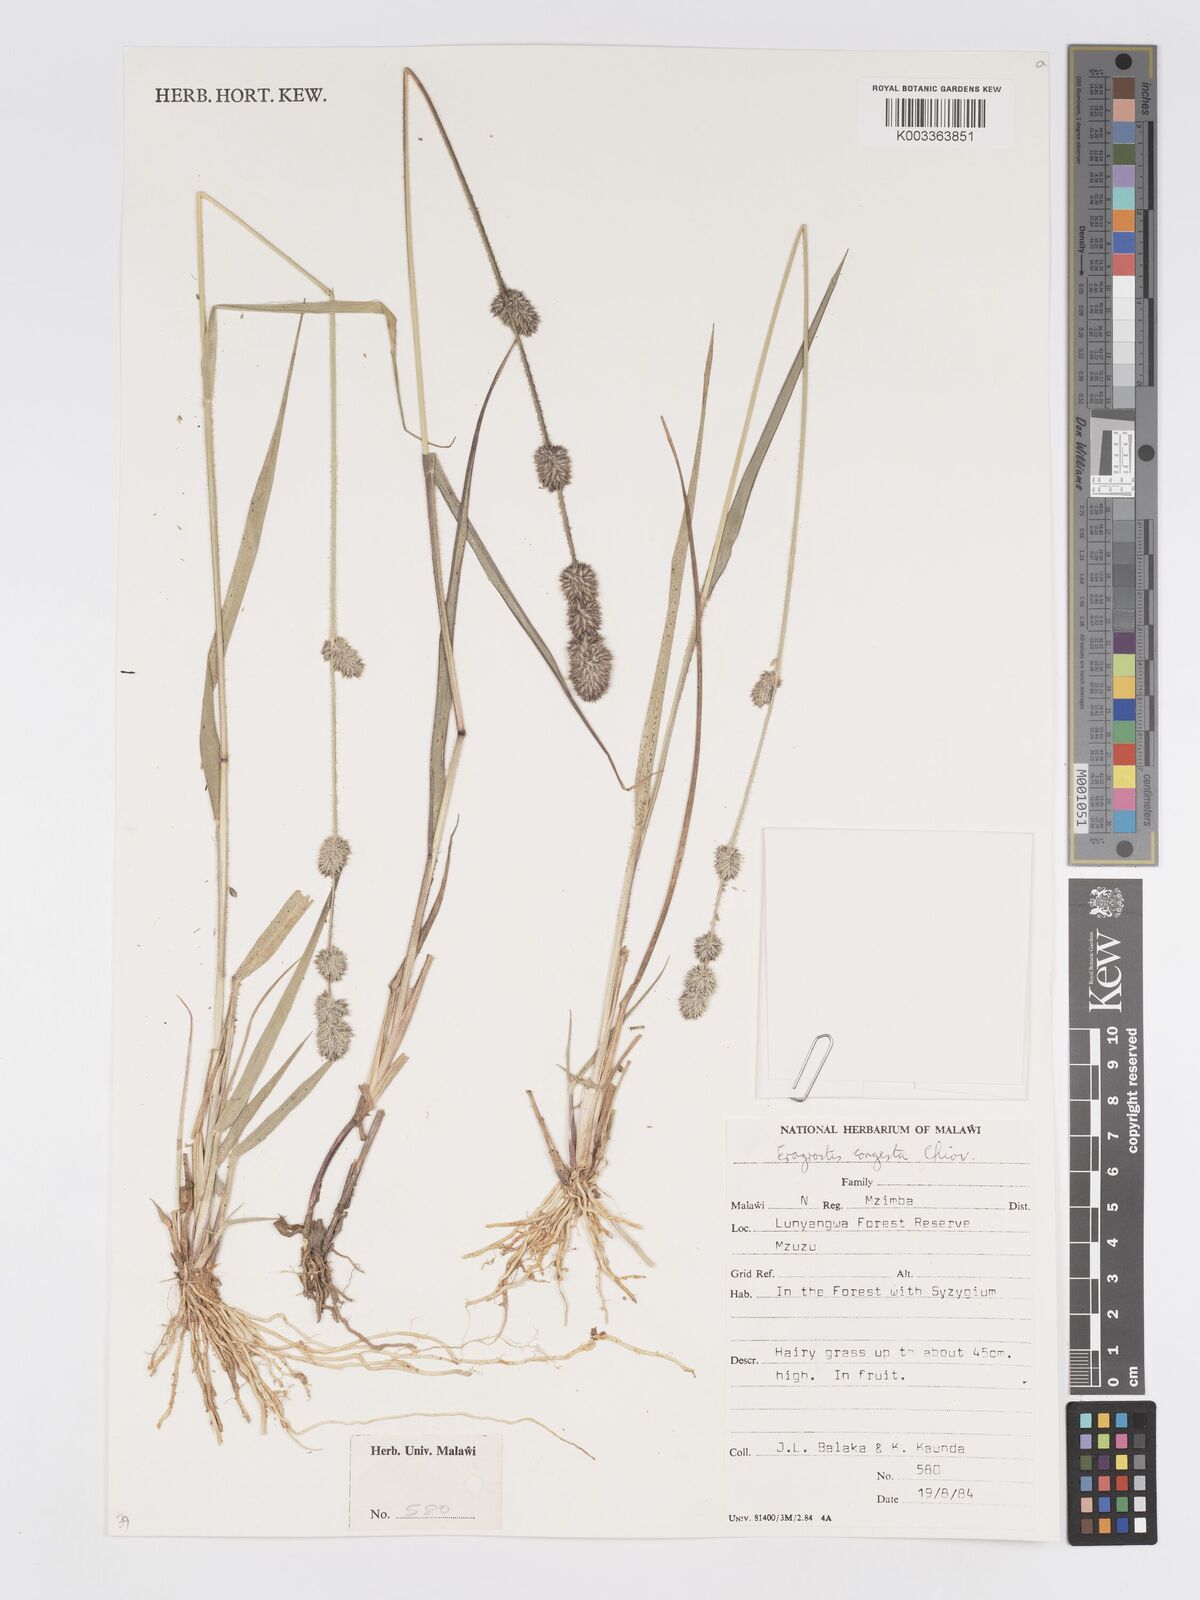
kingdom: Plantae
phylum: Tracheophyta
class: Liliopsida
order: Poales
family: Poaceae
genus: Eragrostis
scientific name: Eragrostis congesta
